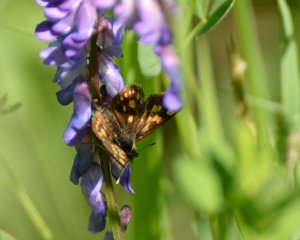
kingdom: Animalia
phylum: Arthropoda
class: Insecta
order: Lepidoptera
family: Hesperiidae
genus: Carterocephalus
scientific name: Carterocephalus palaemon
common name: Chequered Skipper
